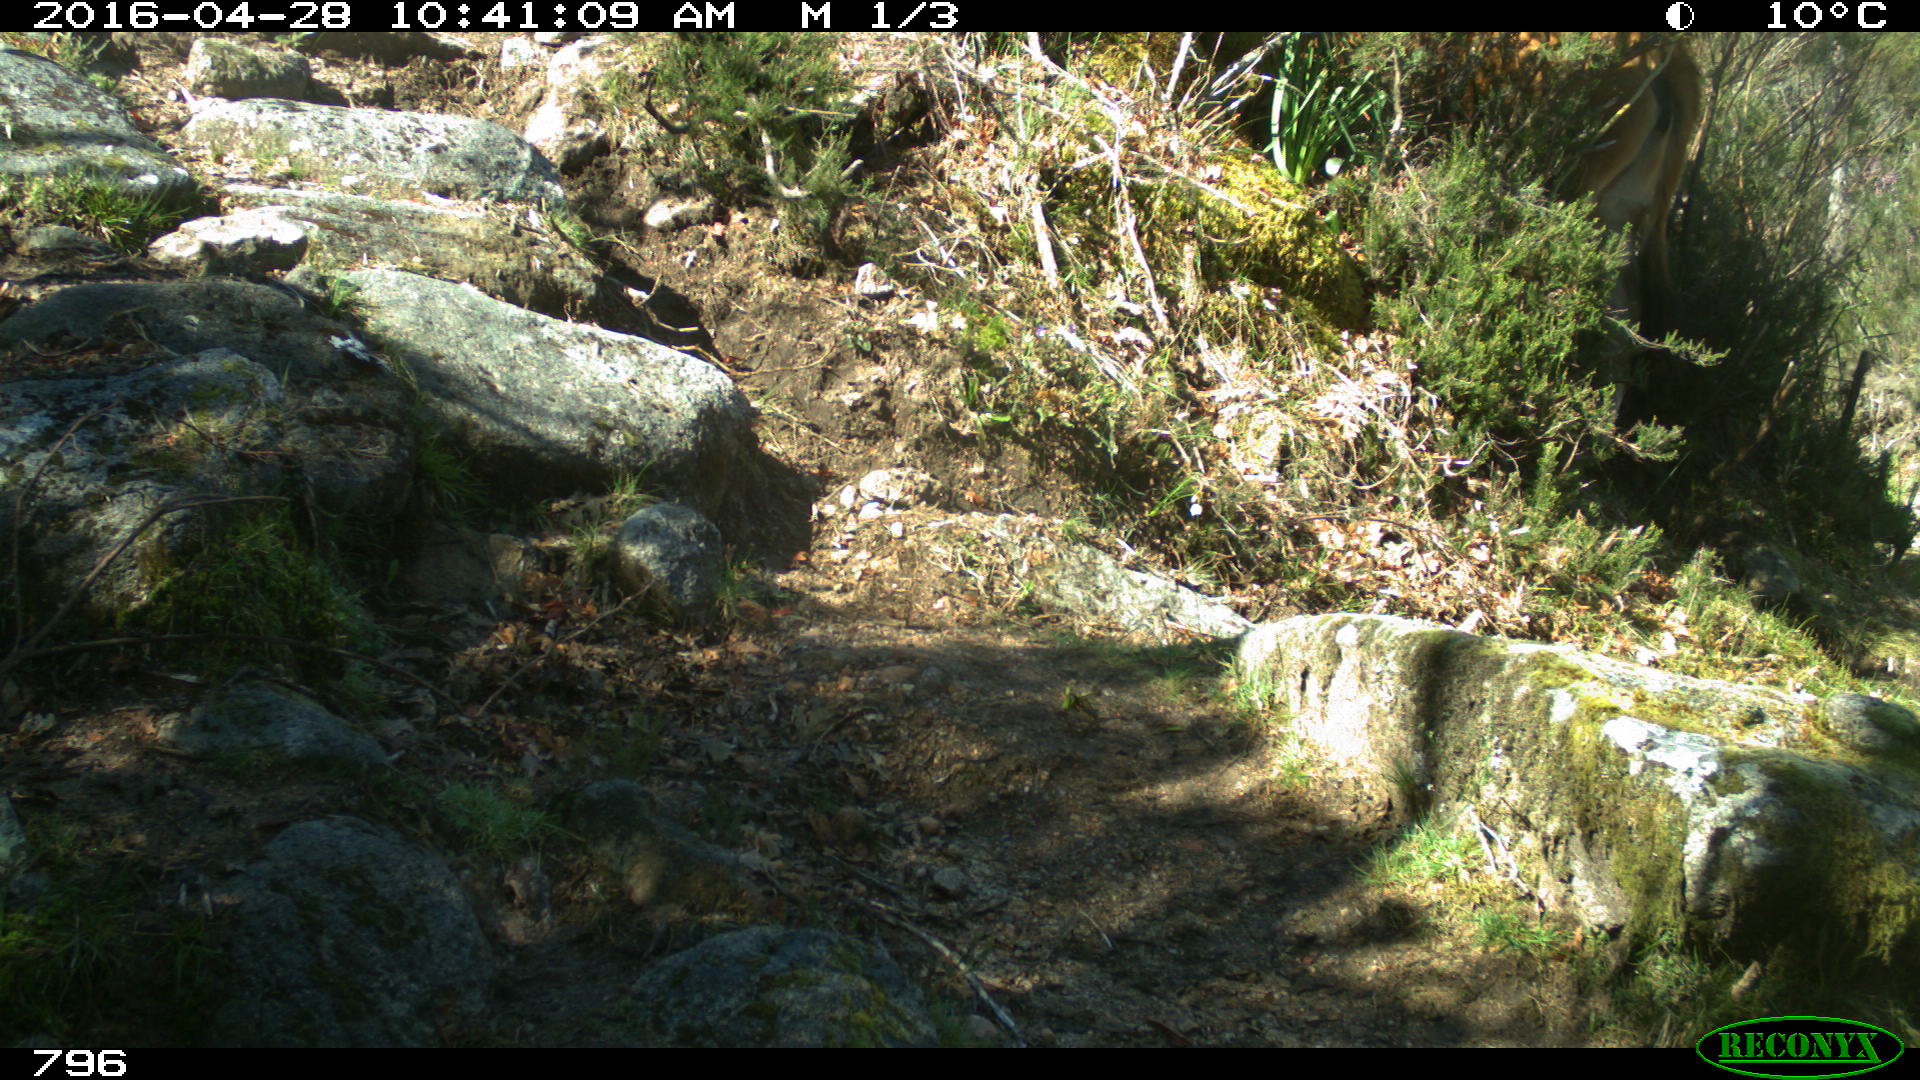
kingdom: Animalia
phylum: Chordata
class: Mammalia
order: Artiodactyla
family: Bovidae
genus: Bos
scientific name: Bos taurus
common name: Domesticated cattle
